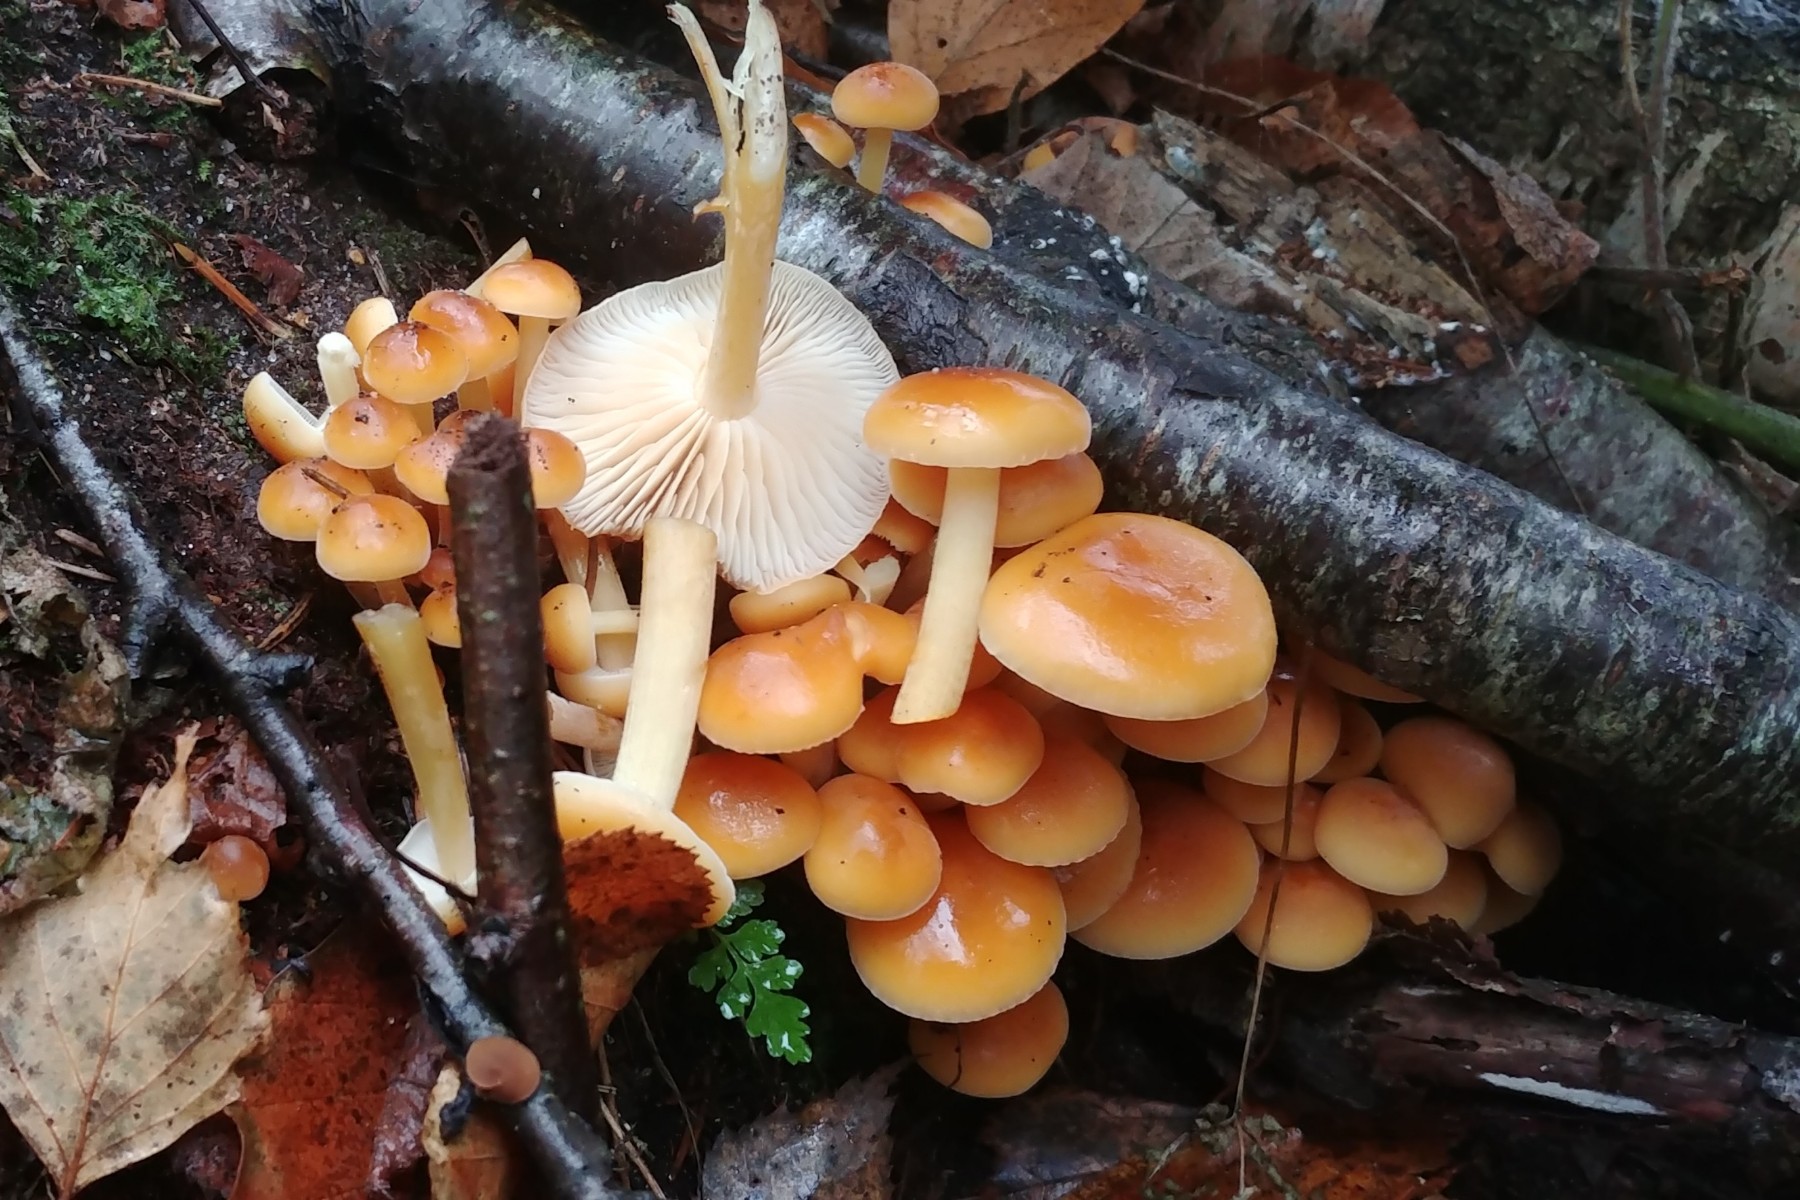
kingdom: Fungi
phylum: Basidiomycota
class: Agaricomycetes
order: Agaricales
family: Physalacriaceae
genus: Flammulina
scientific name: Flammulina
